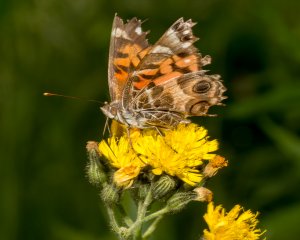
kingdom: Animalia
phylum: Arthropoda
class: Insecta
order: Lepidoptera
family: Nymphalidae
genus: Vanessa
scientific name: Vanessa virginiensis
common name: American Lady
